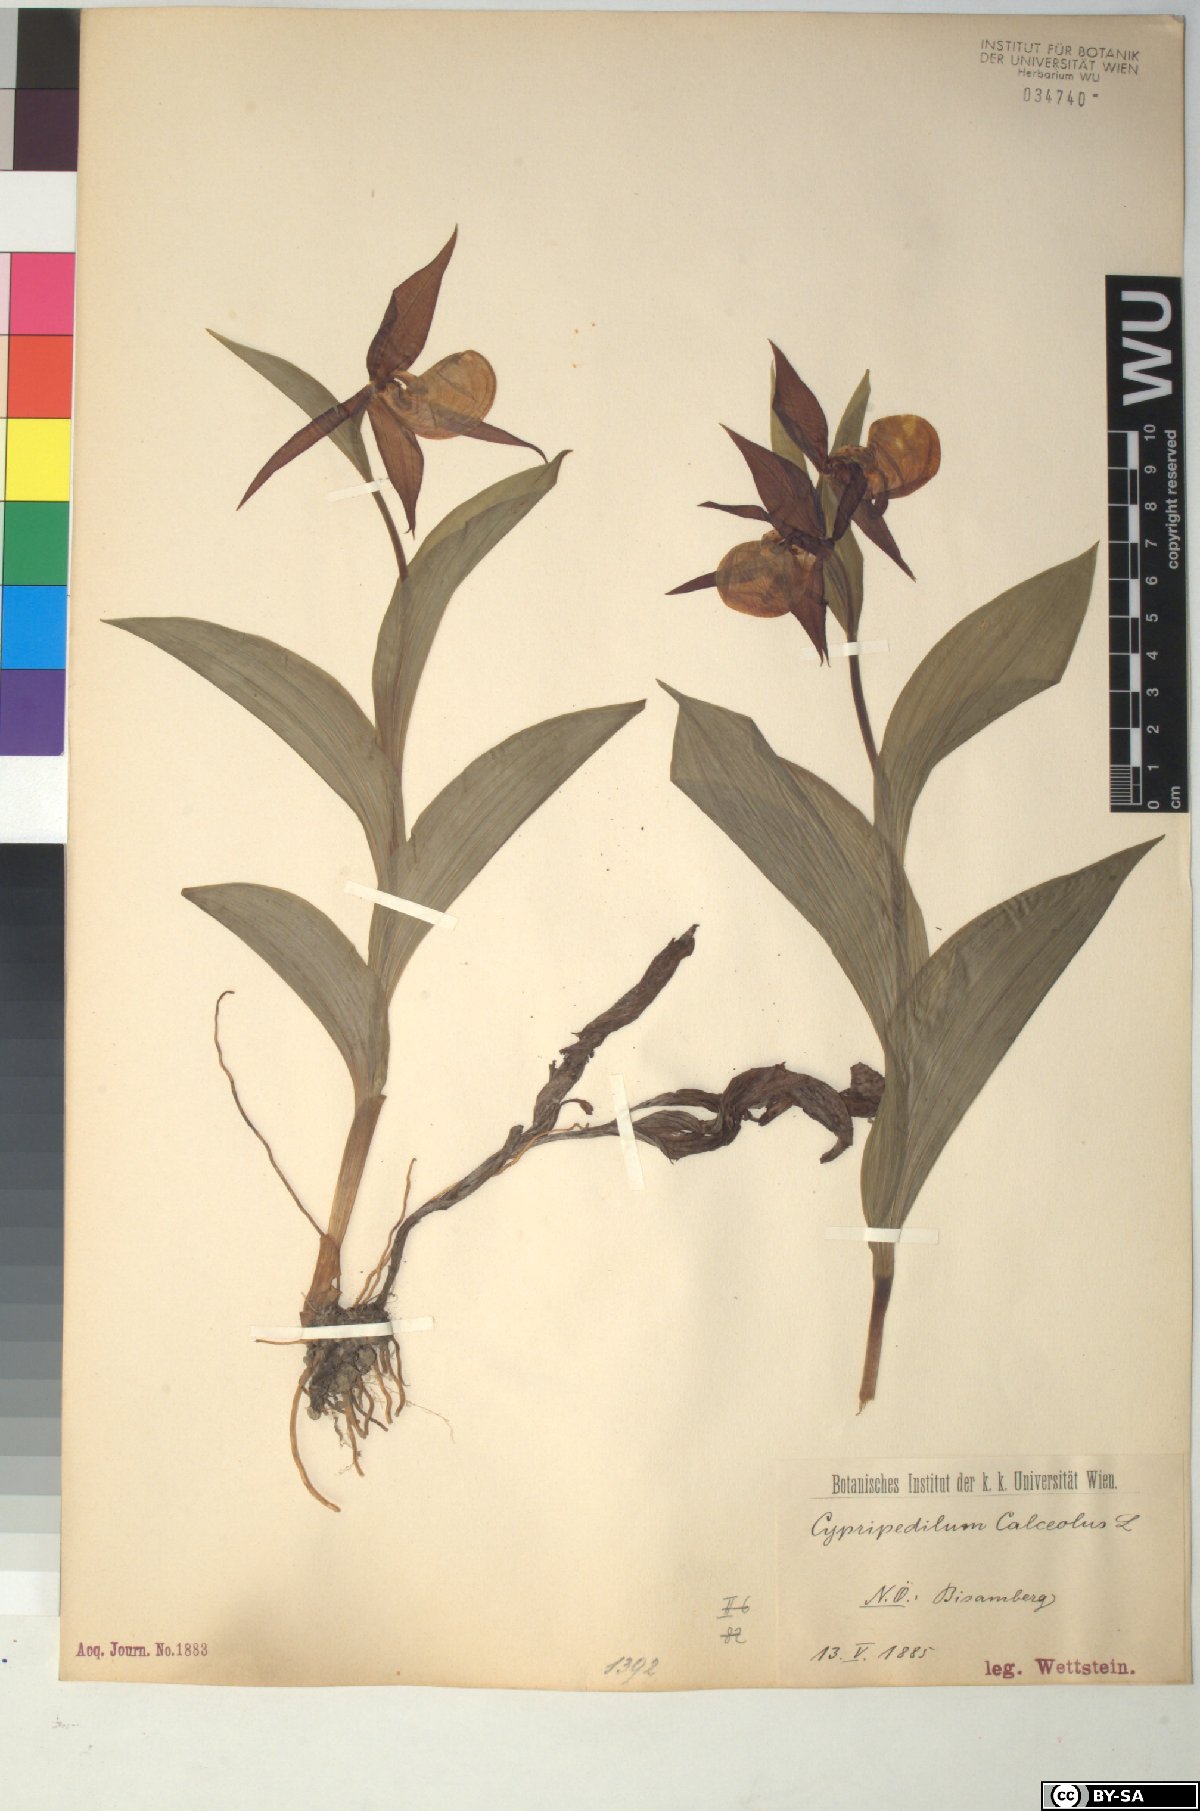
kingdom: Plantae
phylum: Tracheophyta
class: Liliopsida
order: Asparagales
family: Orchidaceae
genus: Cypripedium
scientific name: Cypripedium calceolus
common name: Lady's-slipper
